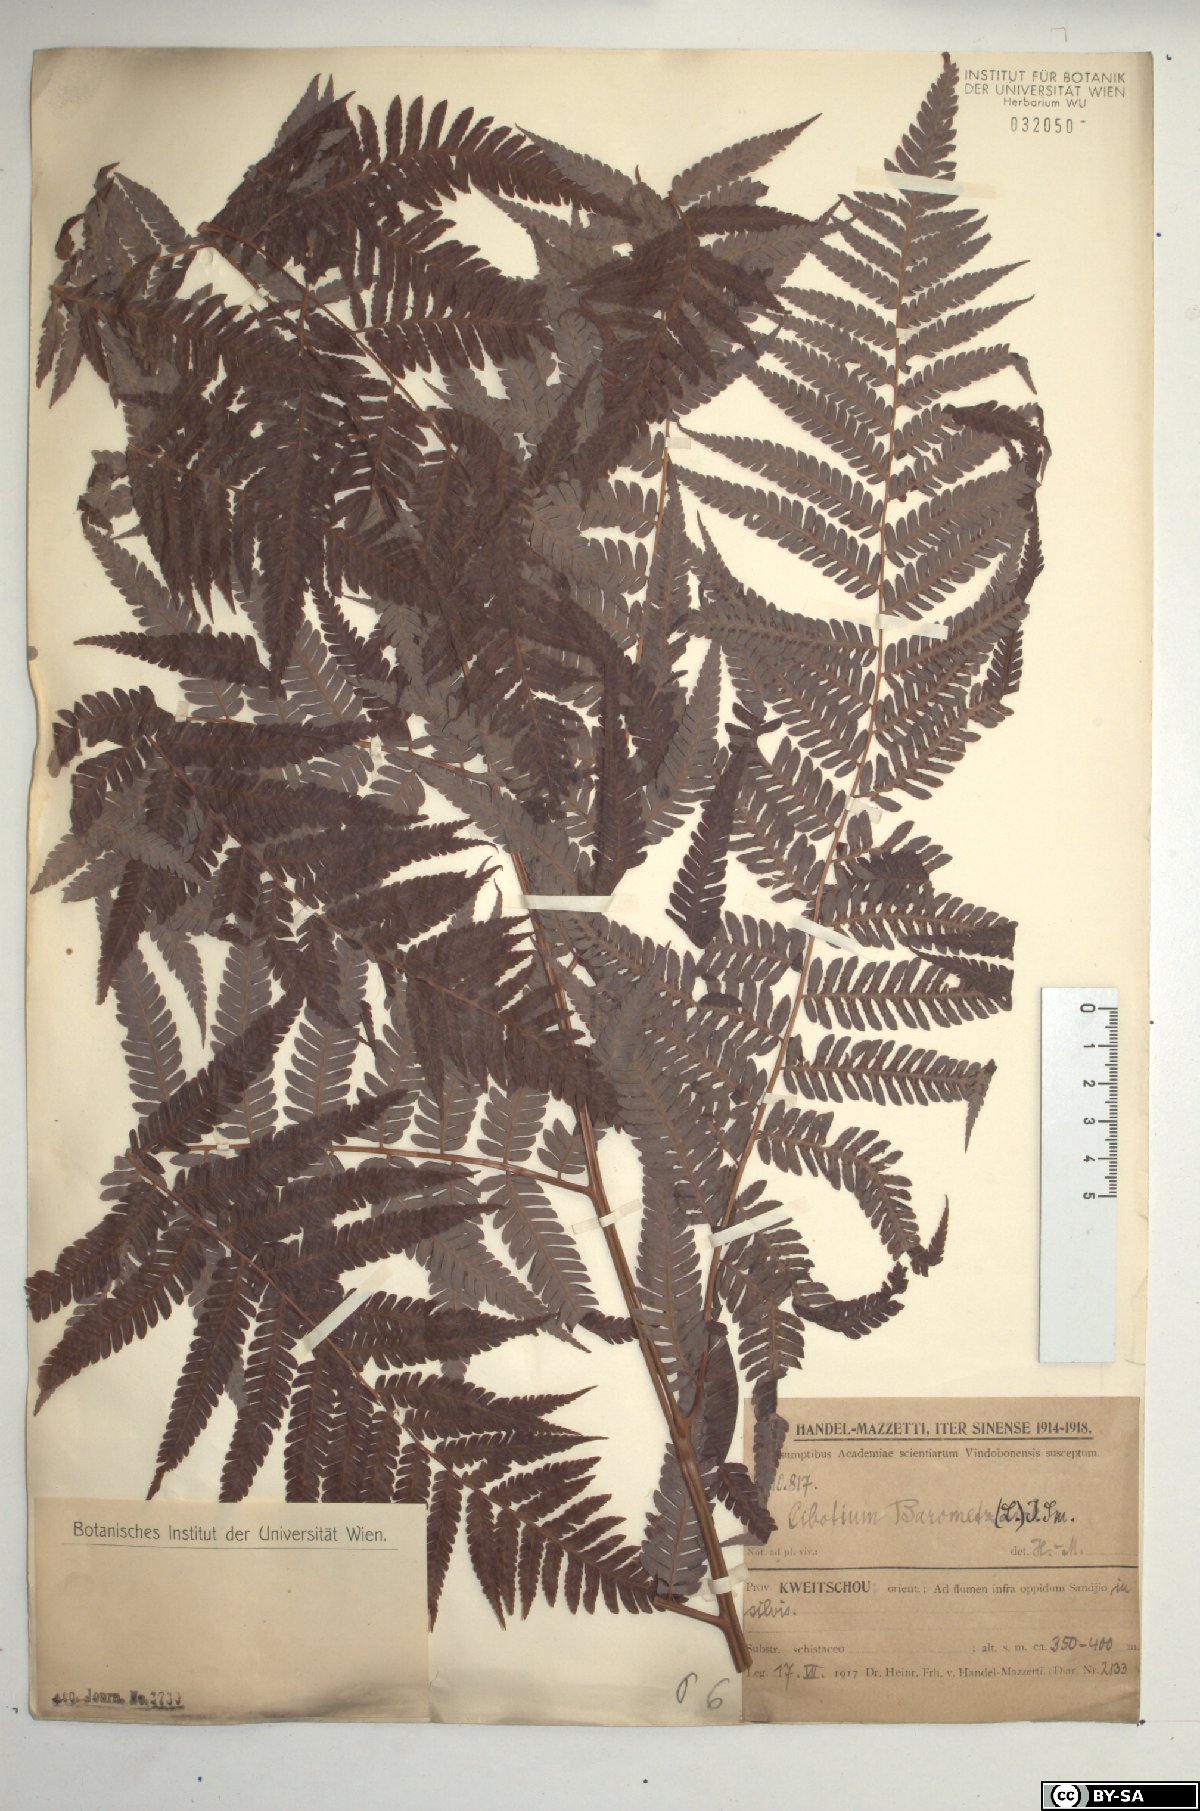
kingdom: Plantae
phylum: Tracheophyta
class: Polypodiopsida
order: Cyatheales
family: Cibotiaceae
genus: Cibotium
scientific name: Cibotium barometz
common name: Scythian-lamb
